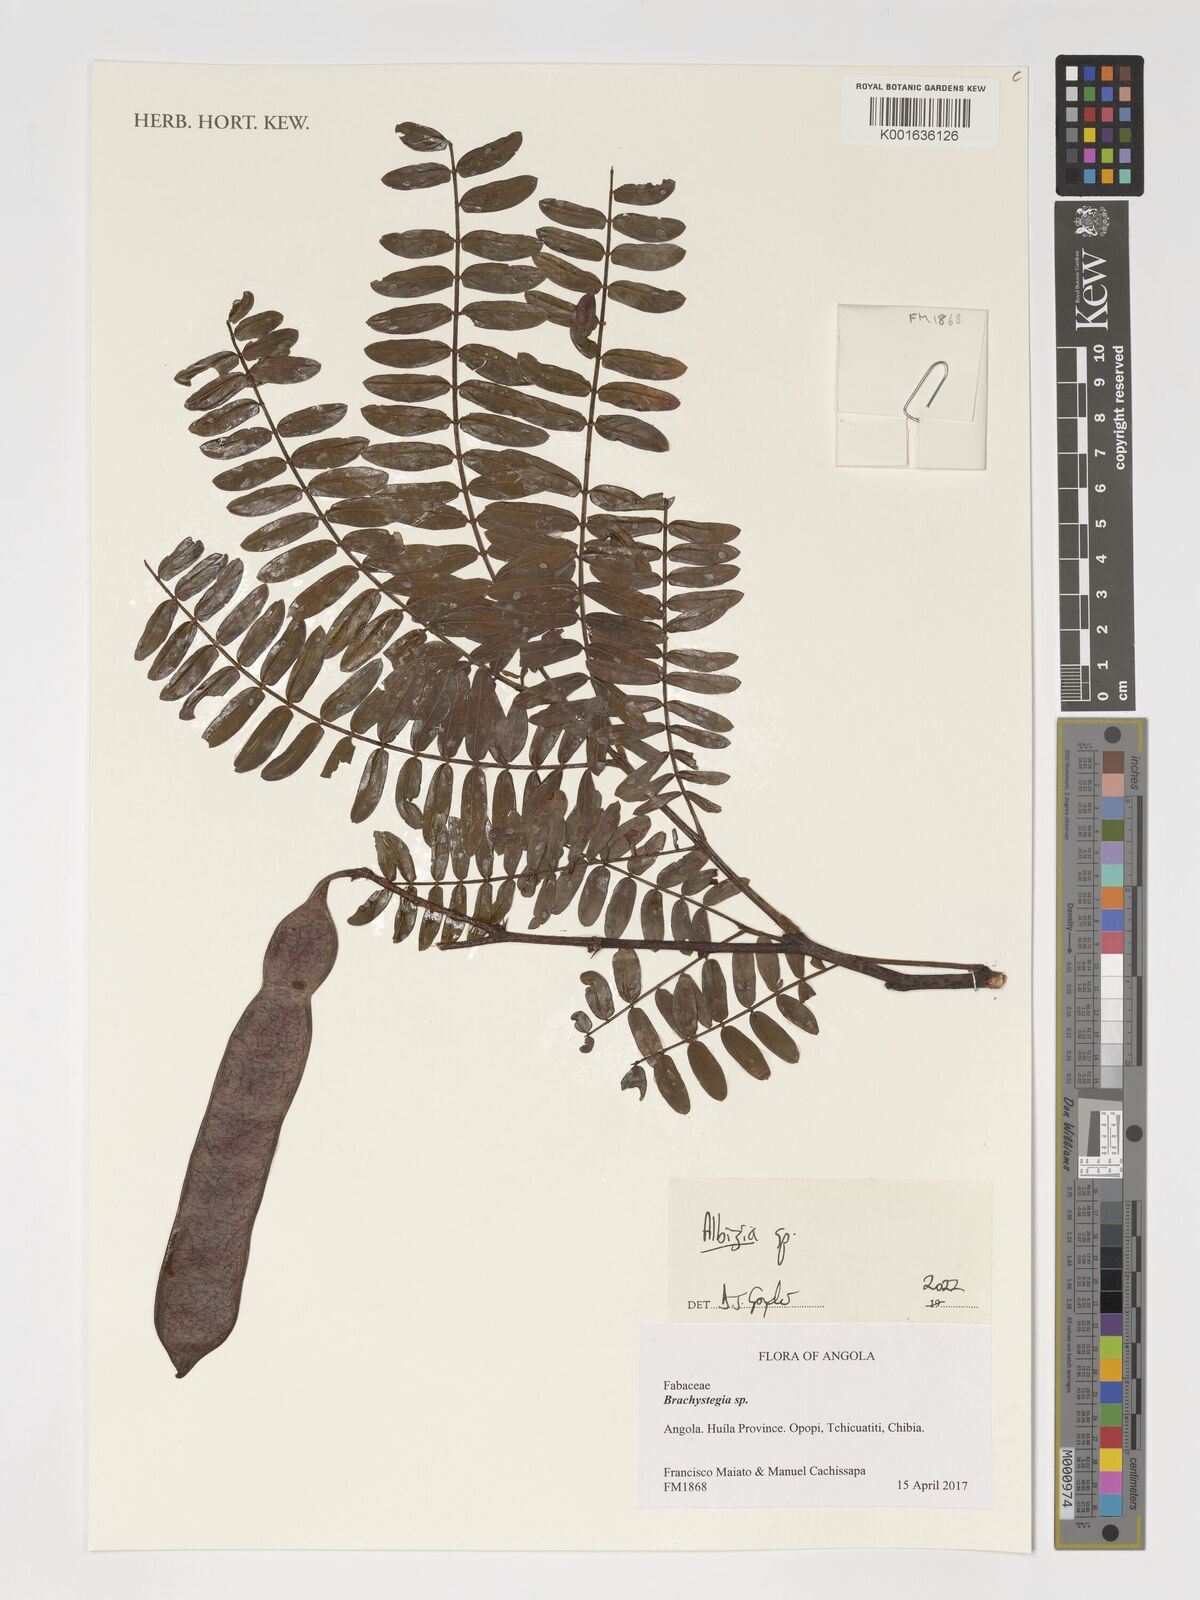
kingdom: Plantae
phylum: Tracheophyta
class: Magnoliopsida
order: Fabales
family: Fabaceae
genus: Albizia
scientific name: Albizia
